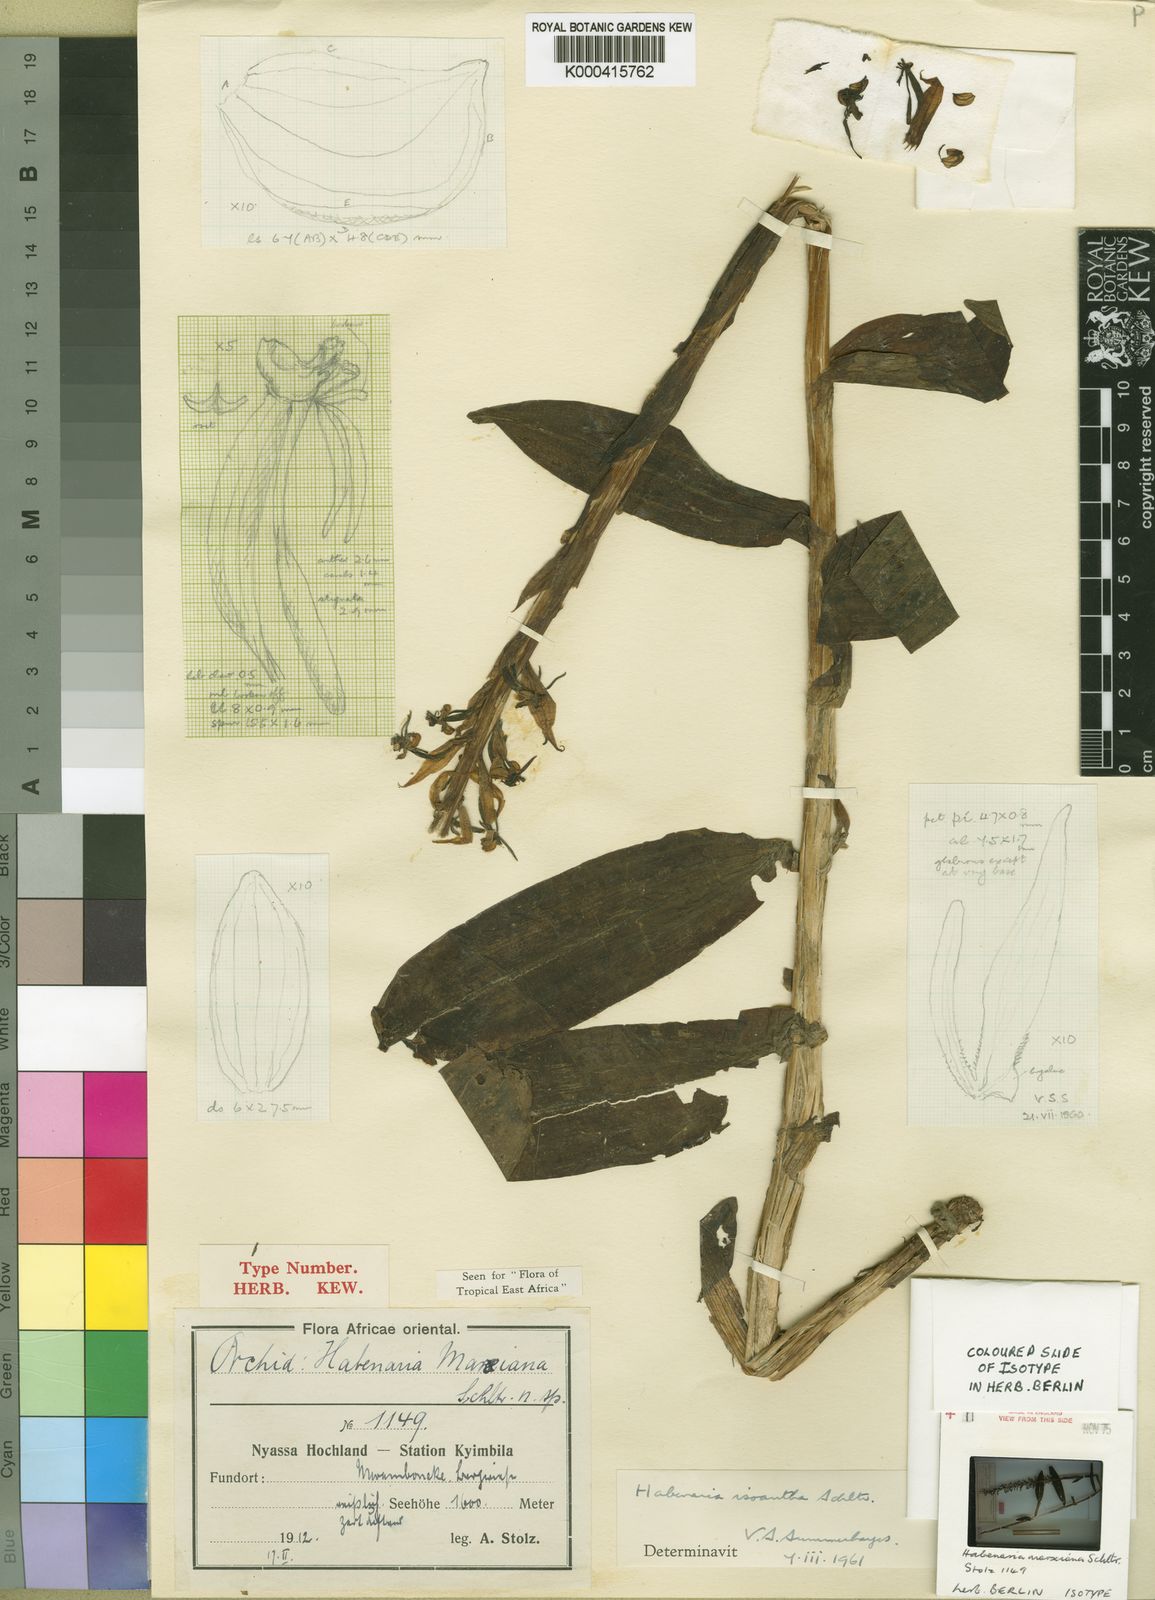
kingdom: Plantae
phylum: Tracheophyta
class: Liliopsida
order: Asparagales
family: Orchidaceae
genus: Habenaria
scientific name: Habenaria isoantha
